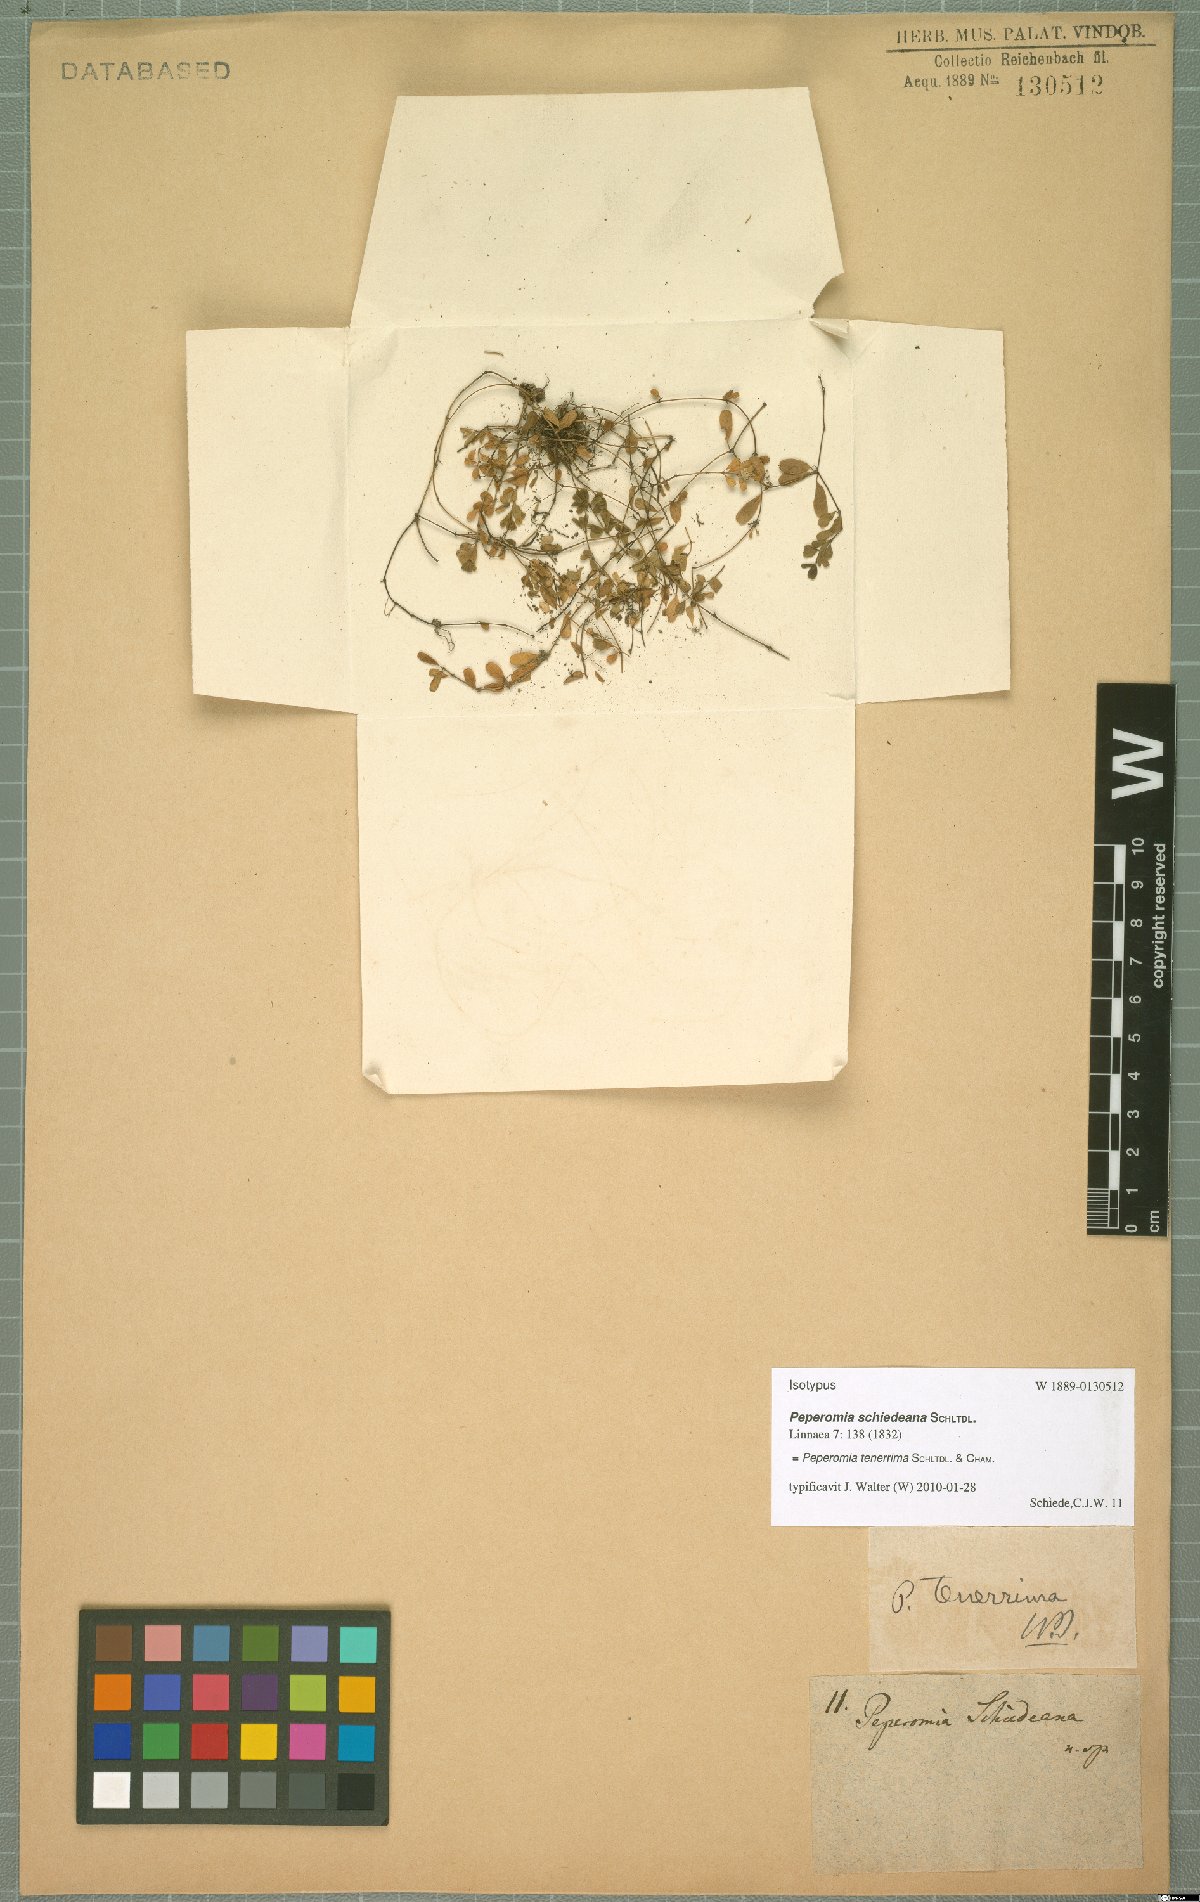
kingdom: Plantae
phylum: Tracheophyta
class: Magnoliopsida
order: Piperales
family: Piperaceae
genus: Peperomia
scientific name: Peperomia tenerrima
